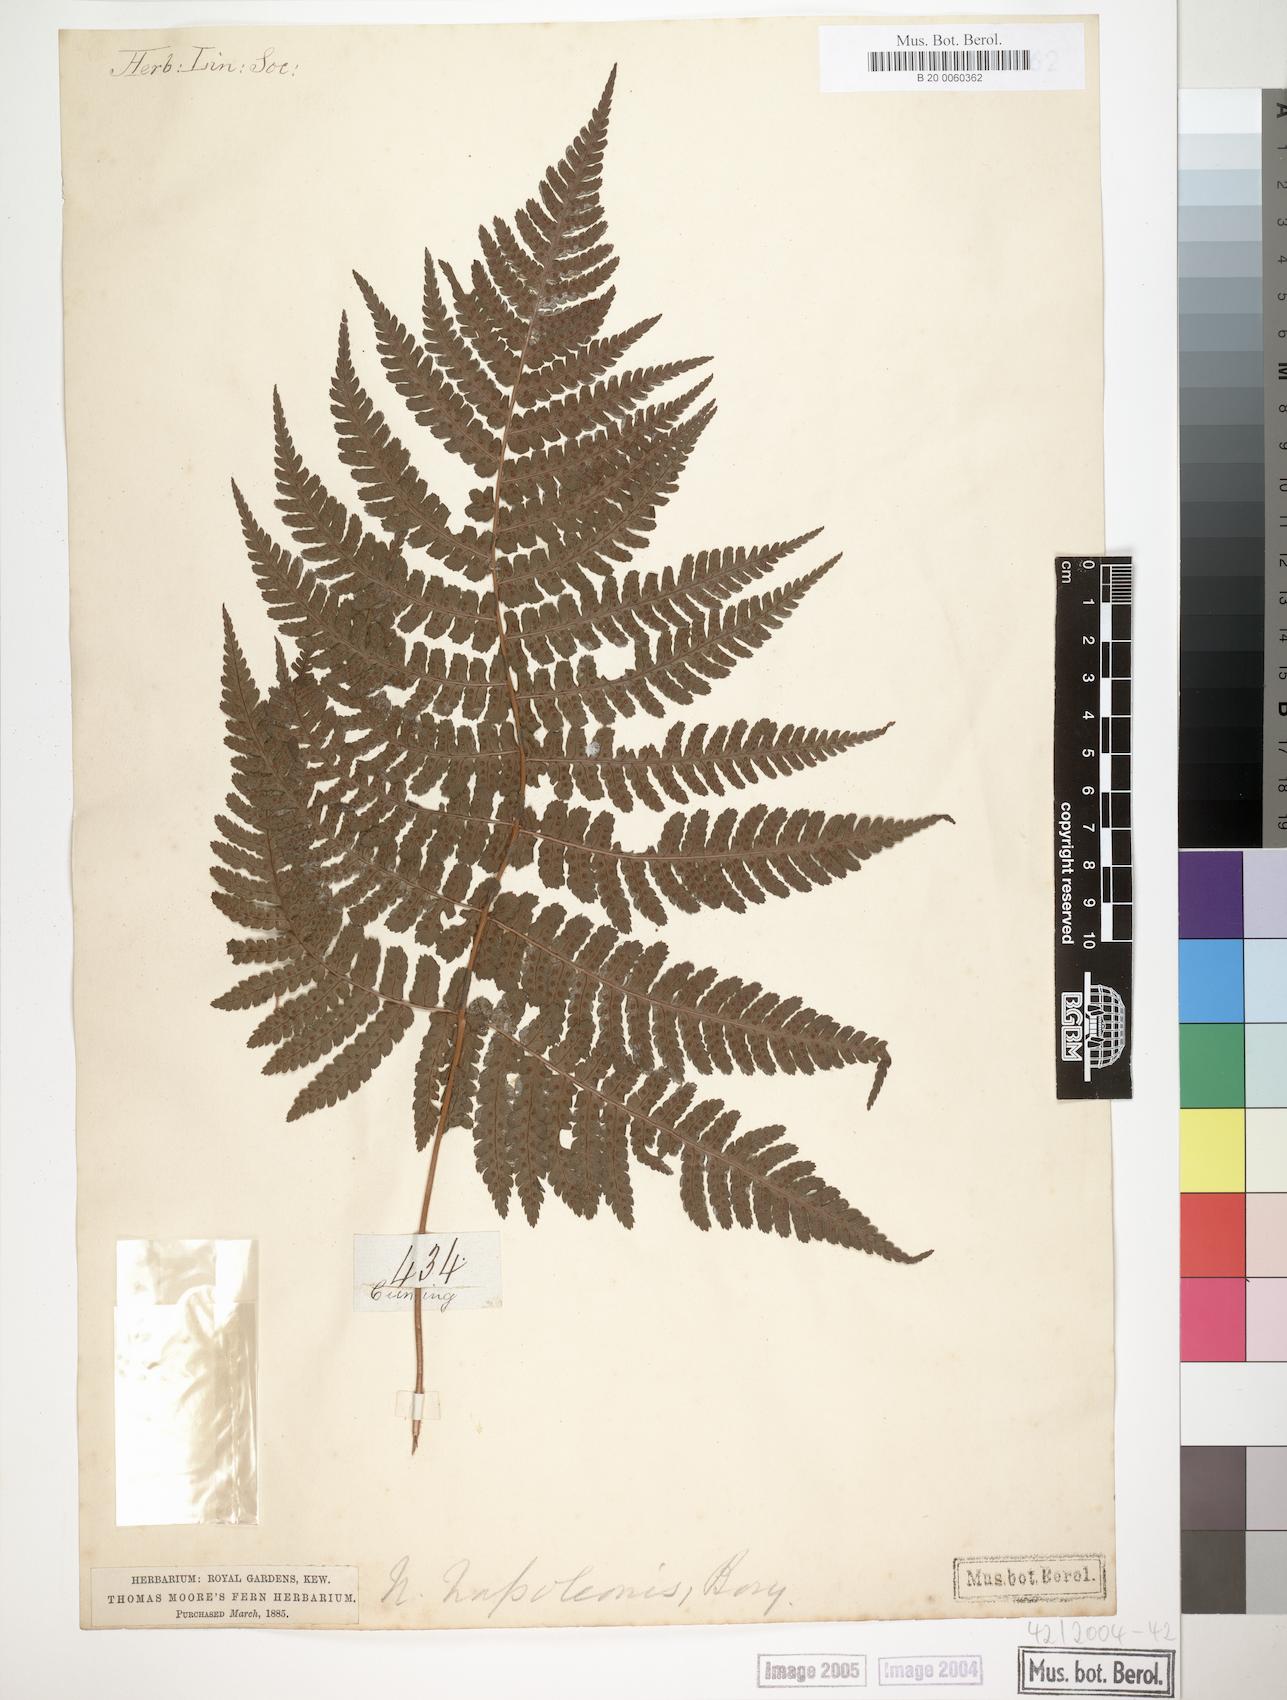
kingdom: Plantae
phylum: Tracheophyta
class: Polypodiopsida
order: Polypodiales
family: Dryopteridaceae
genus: Dryopteris
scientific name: Dryopteris napoleonis
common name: Small kidney fern
